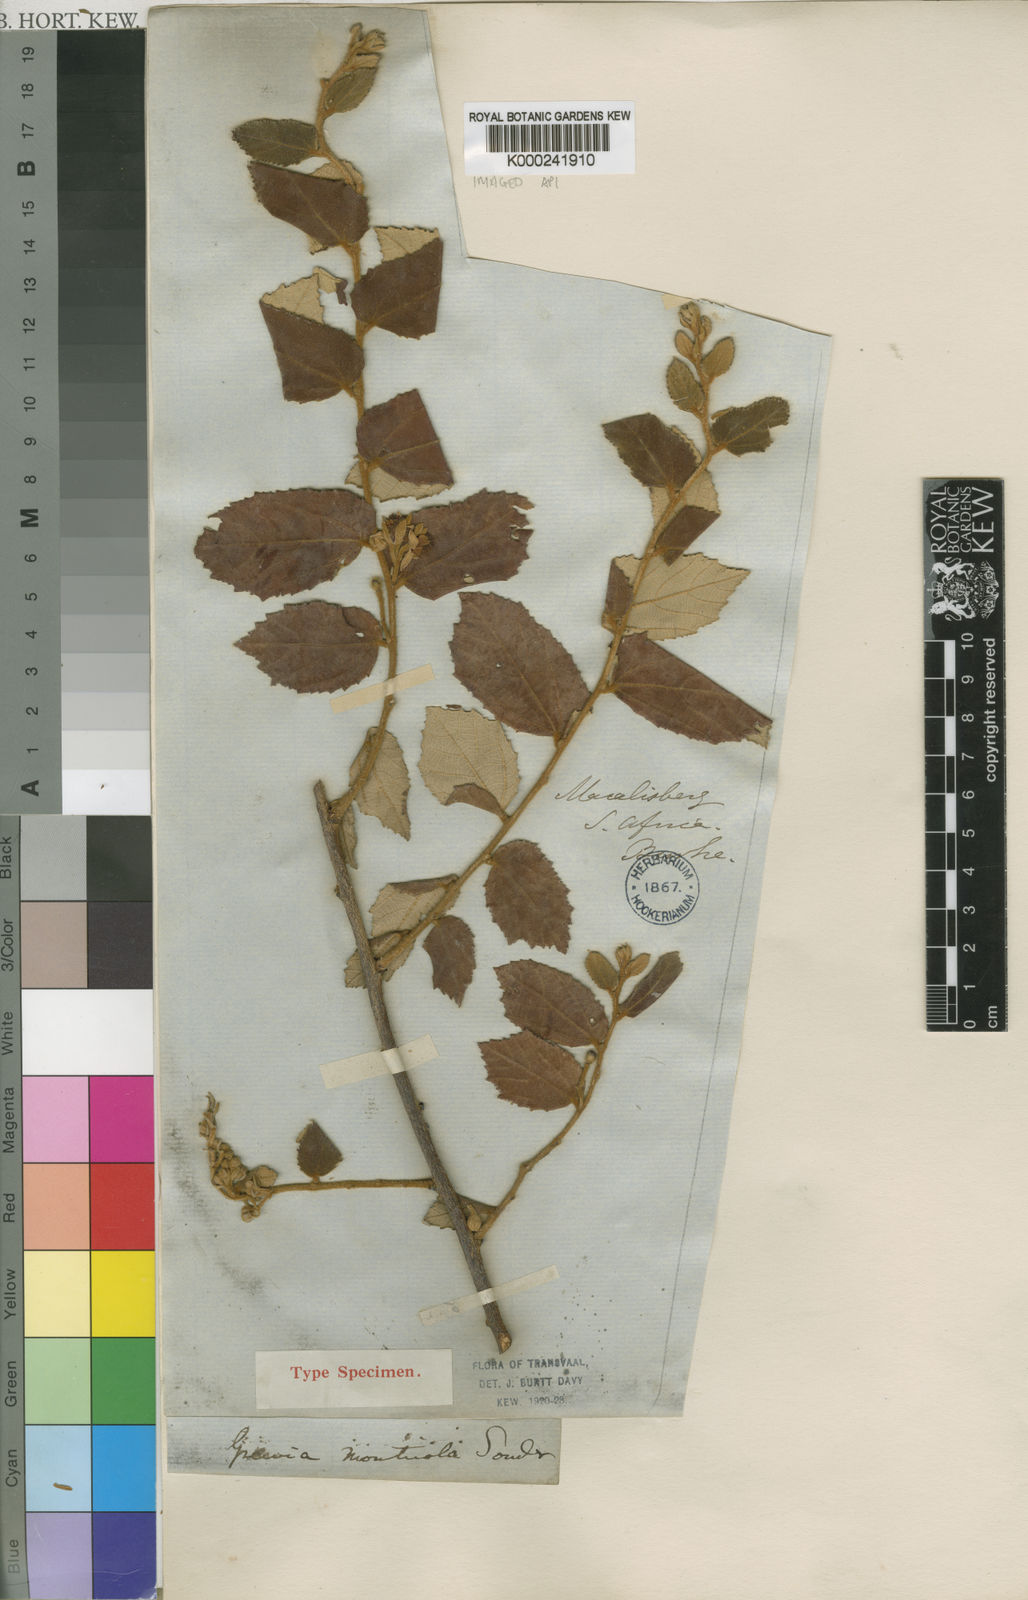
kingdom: Plantae
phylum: Tracheophyta
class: Magnoliopsida
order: Malvales
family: Malvaceae
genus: Grewia
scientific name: Grewia monticola
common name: Grey raisin
